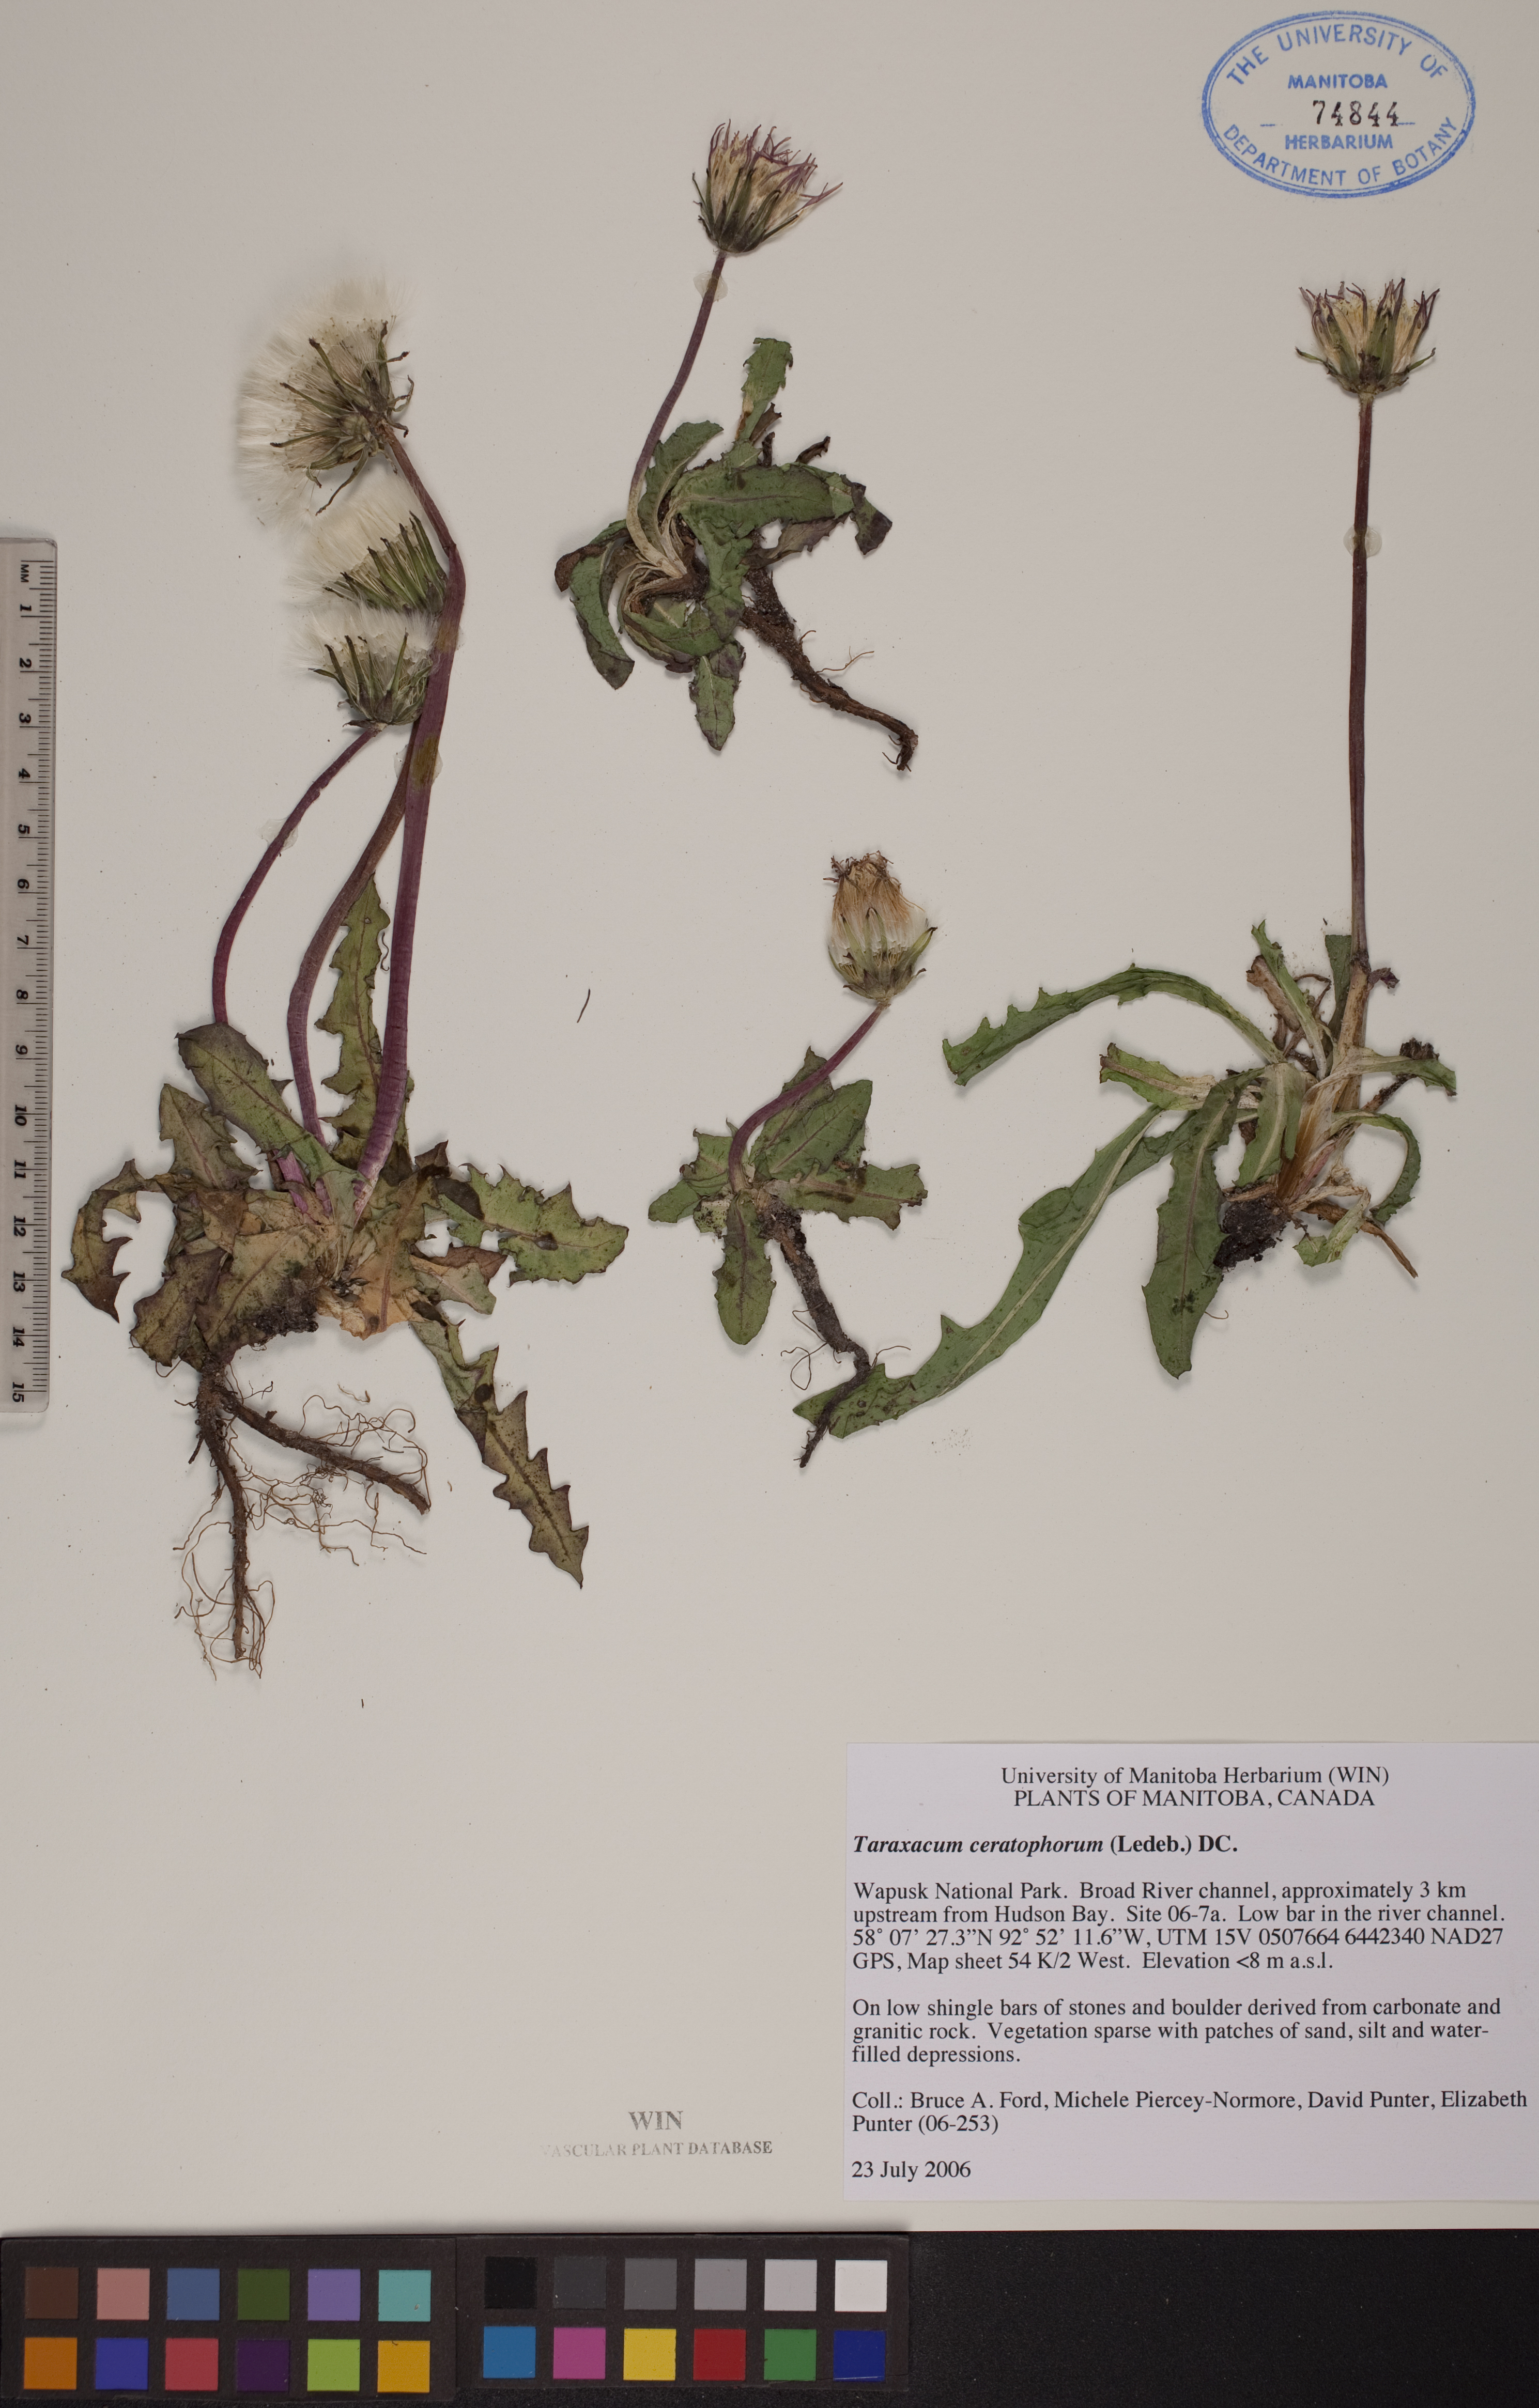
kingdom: Plantae
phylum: Tracheophyta
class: Magnoliopsida
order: Asterales
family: Asteraceae
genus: Taraxacum
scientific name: Taraxacum ceratophorum
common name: Horn-bearing dandelion
